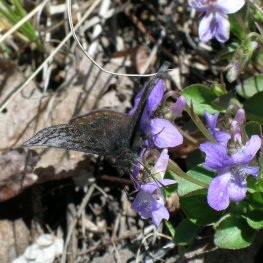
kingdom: Animalia
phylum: Arthropoda
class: Insecta
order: Lepidoptera
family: Hesperiidae
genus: Erynnis
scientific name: Erynnis icelus
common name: Dreamy Duskywing
